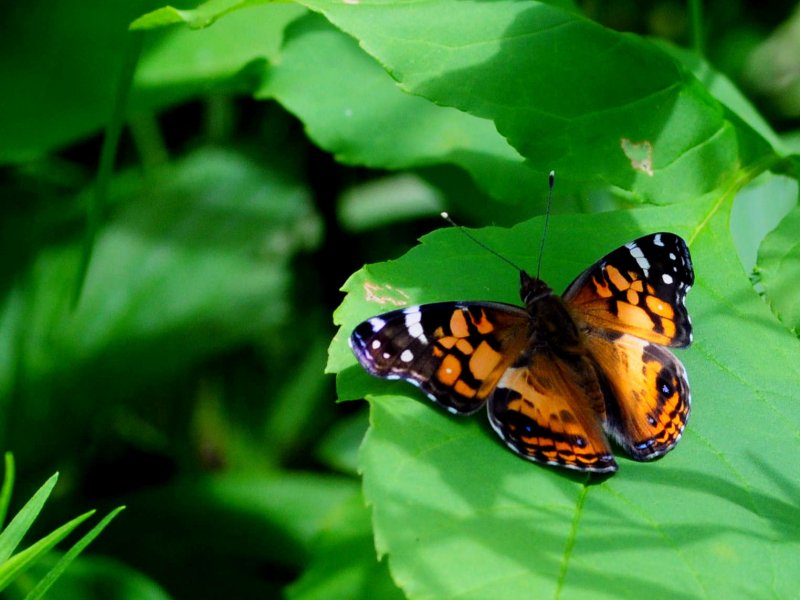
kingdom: Animalia
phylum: Arthropoda
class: Insecta
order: Lepidoptera
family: Nymphalidae
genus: Vanessa
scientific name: Vanessa virginiensis
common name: American Lady
